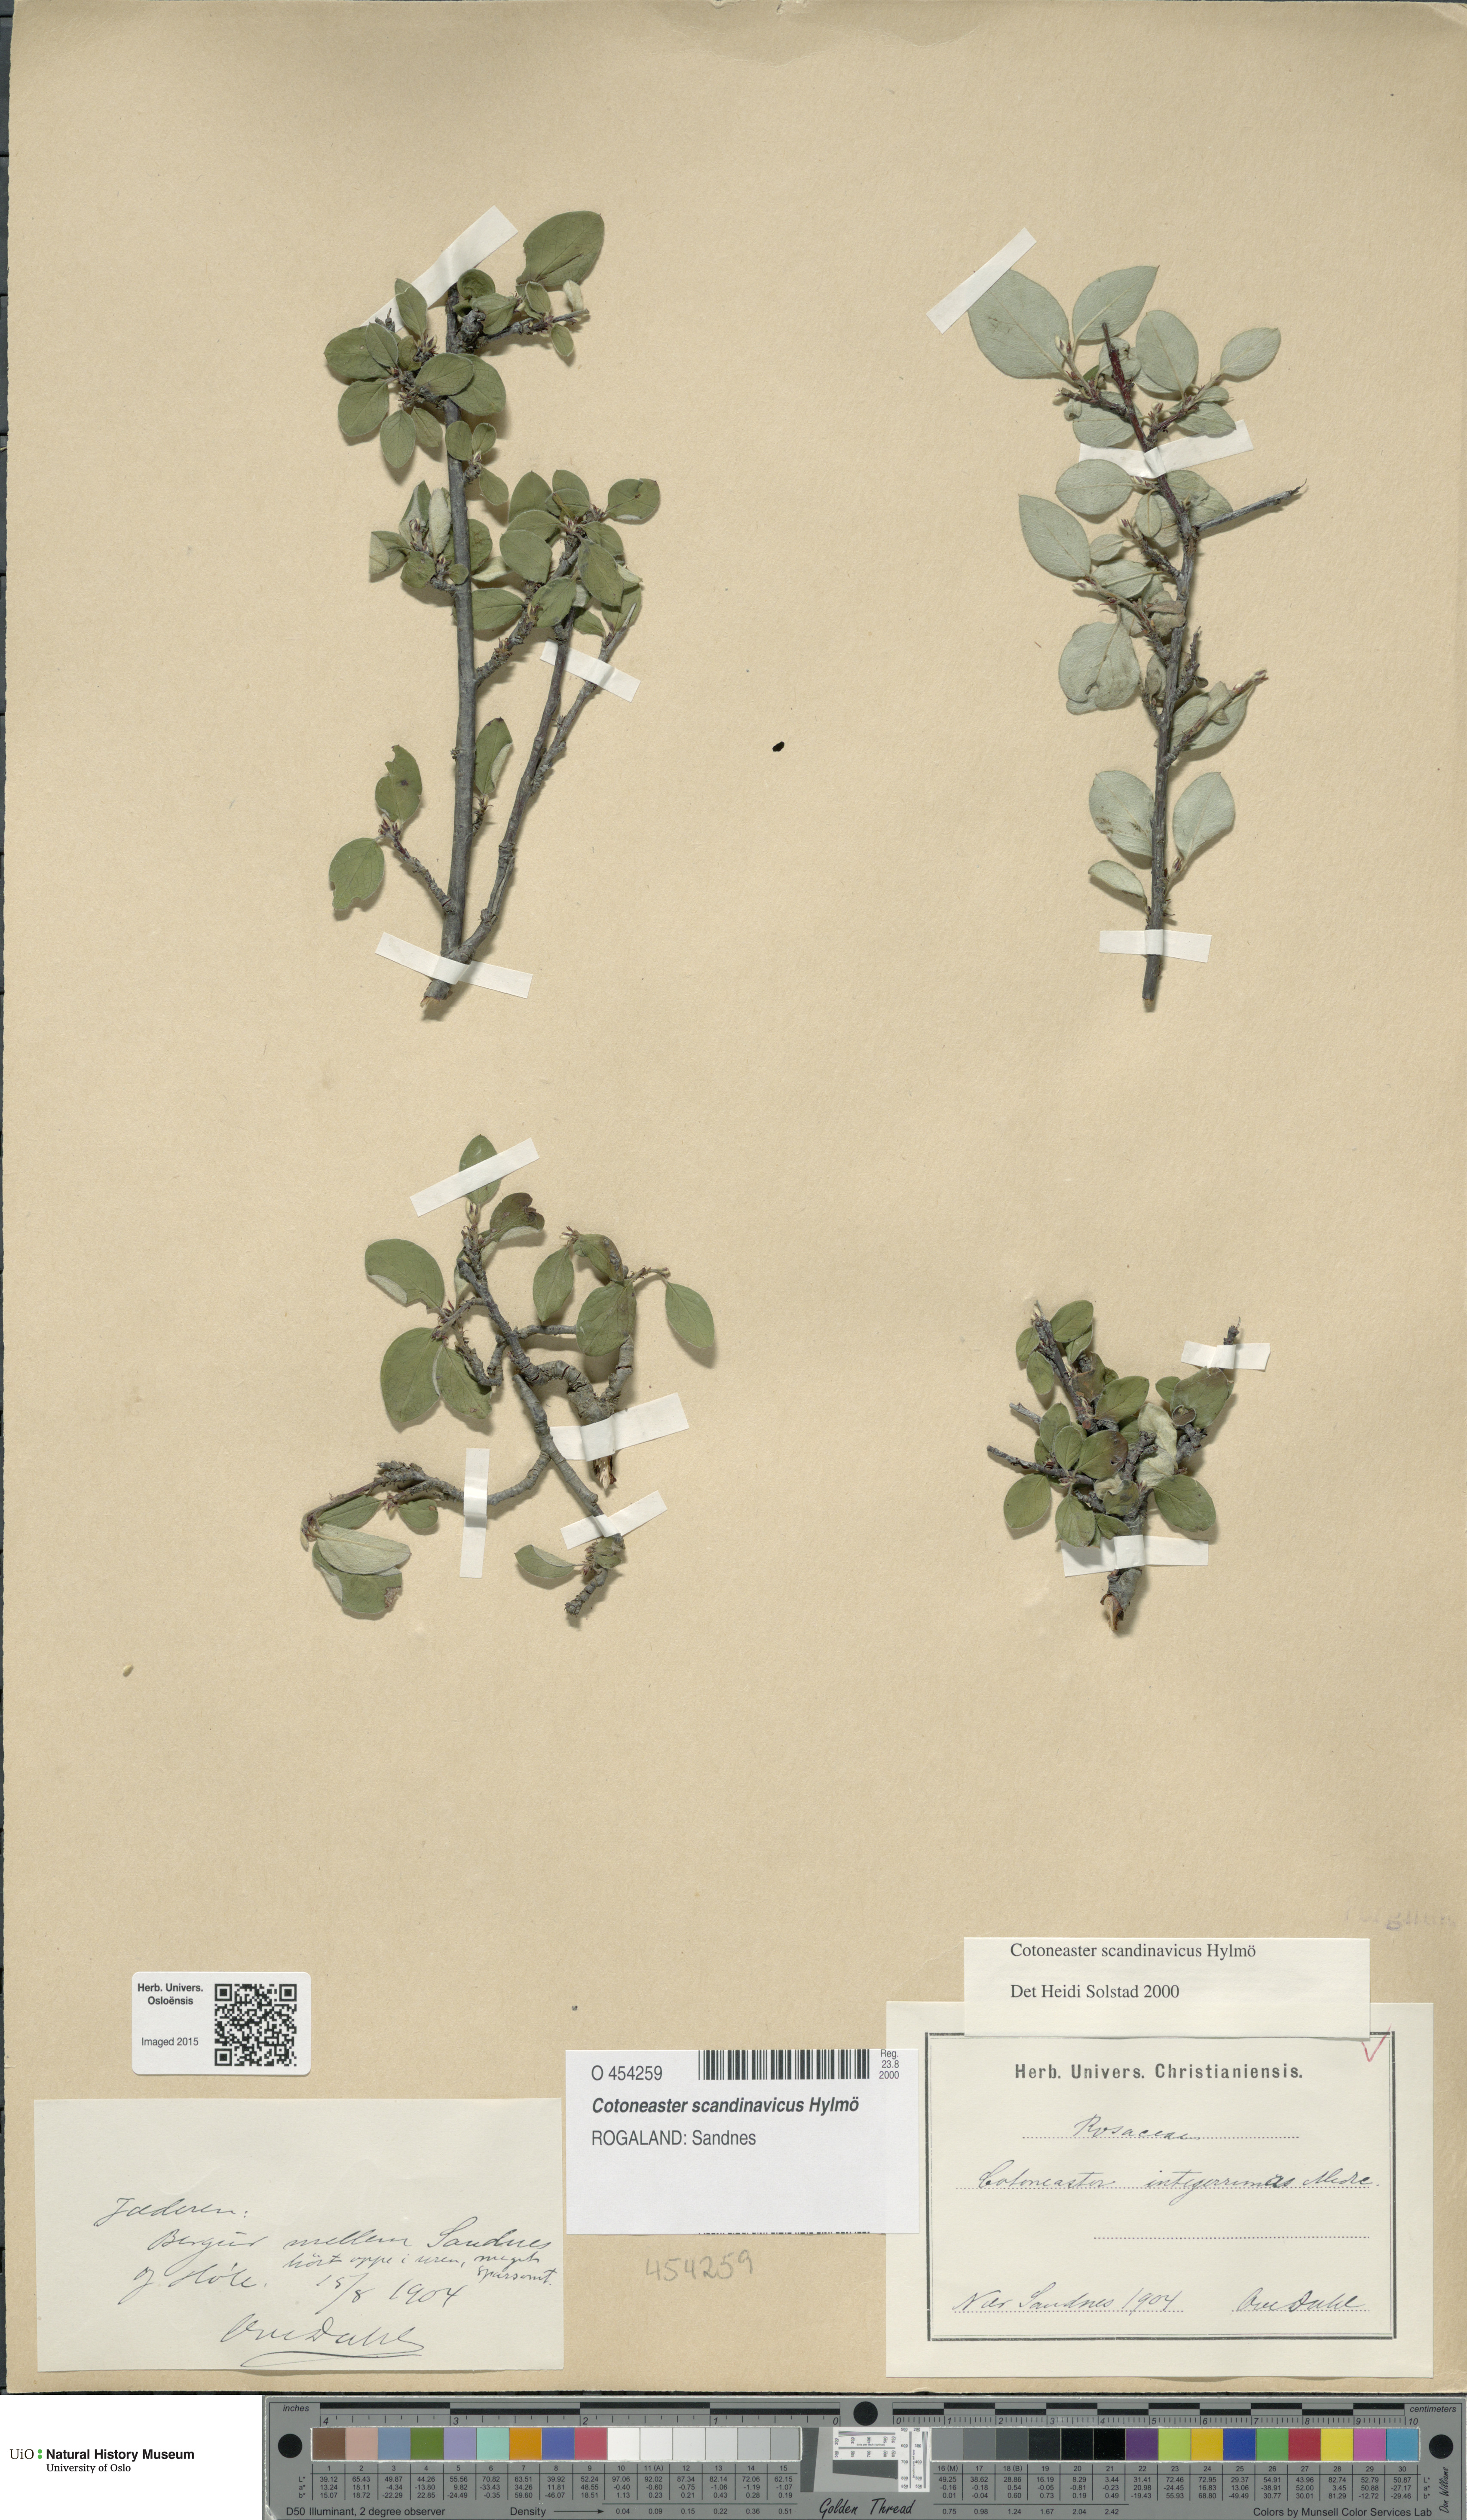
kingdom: Plantae
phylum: Tracheophyta
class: Magnoliopsida
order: Rosales
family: Rosaceae
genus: Cotoneaster
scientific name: Cotoneaster integerrimus
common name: Wild cotoneaster
